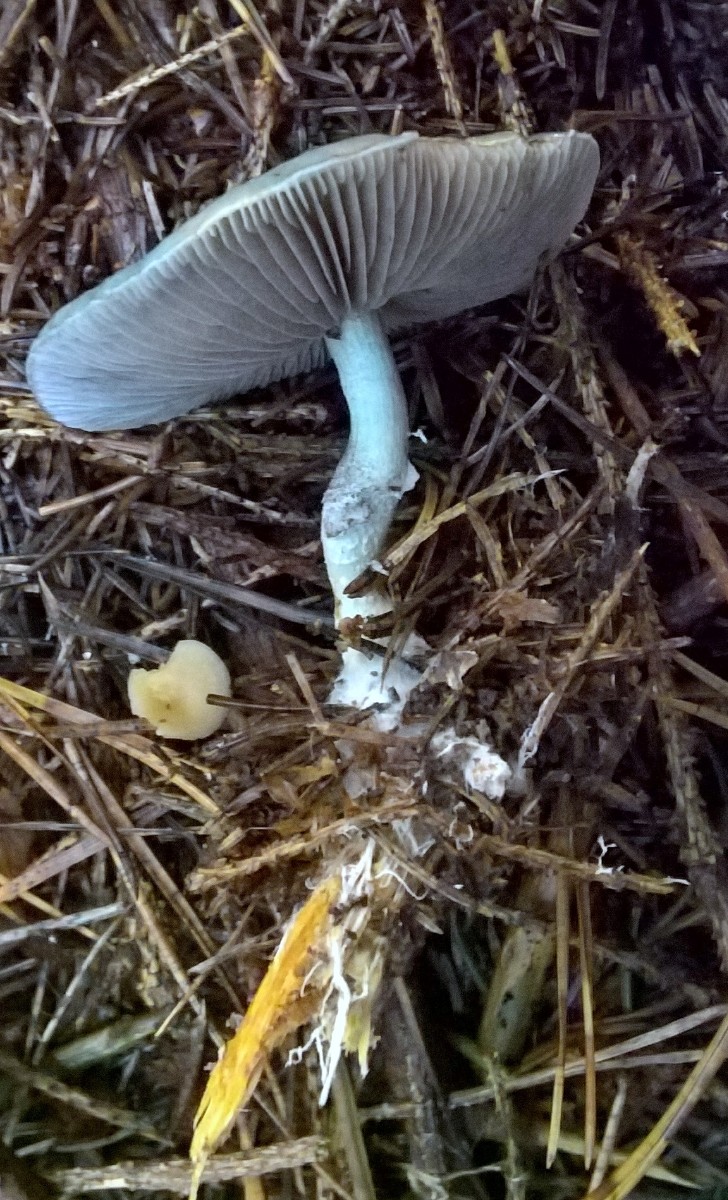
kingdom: Fungi
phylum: Basidiomycota
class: Agaricomycetes
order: Agaricales
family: Strophariaceae
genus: Stropharia
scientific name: Stropharia aeruginosa
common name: spanskgrøn bredblad
